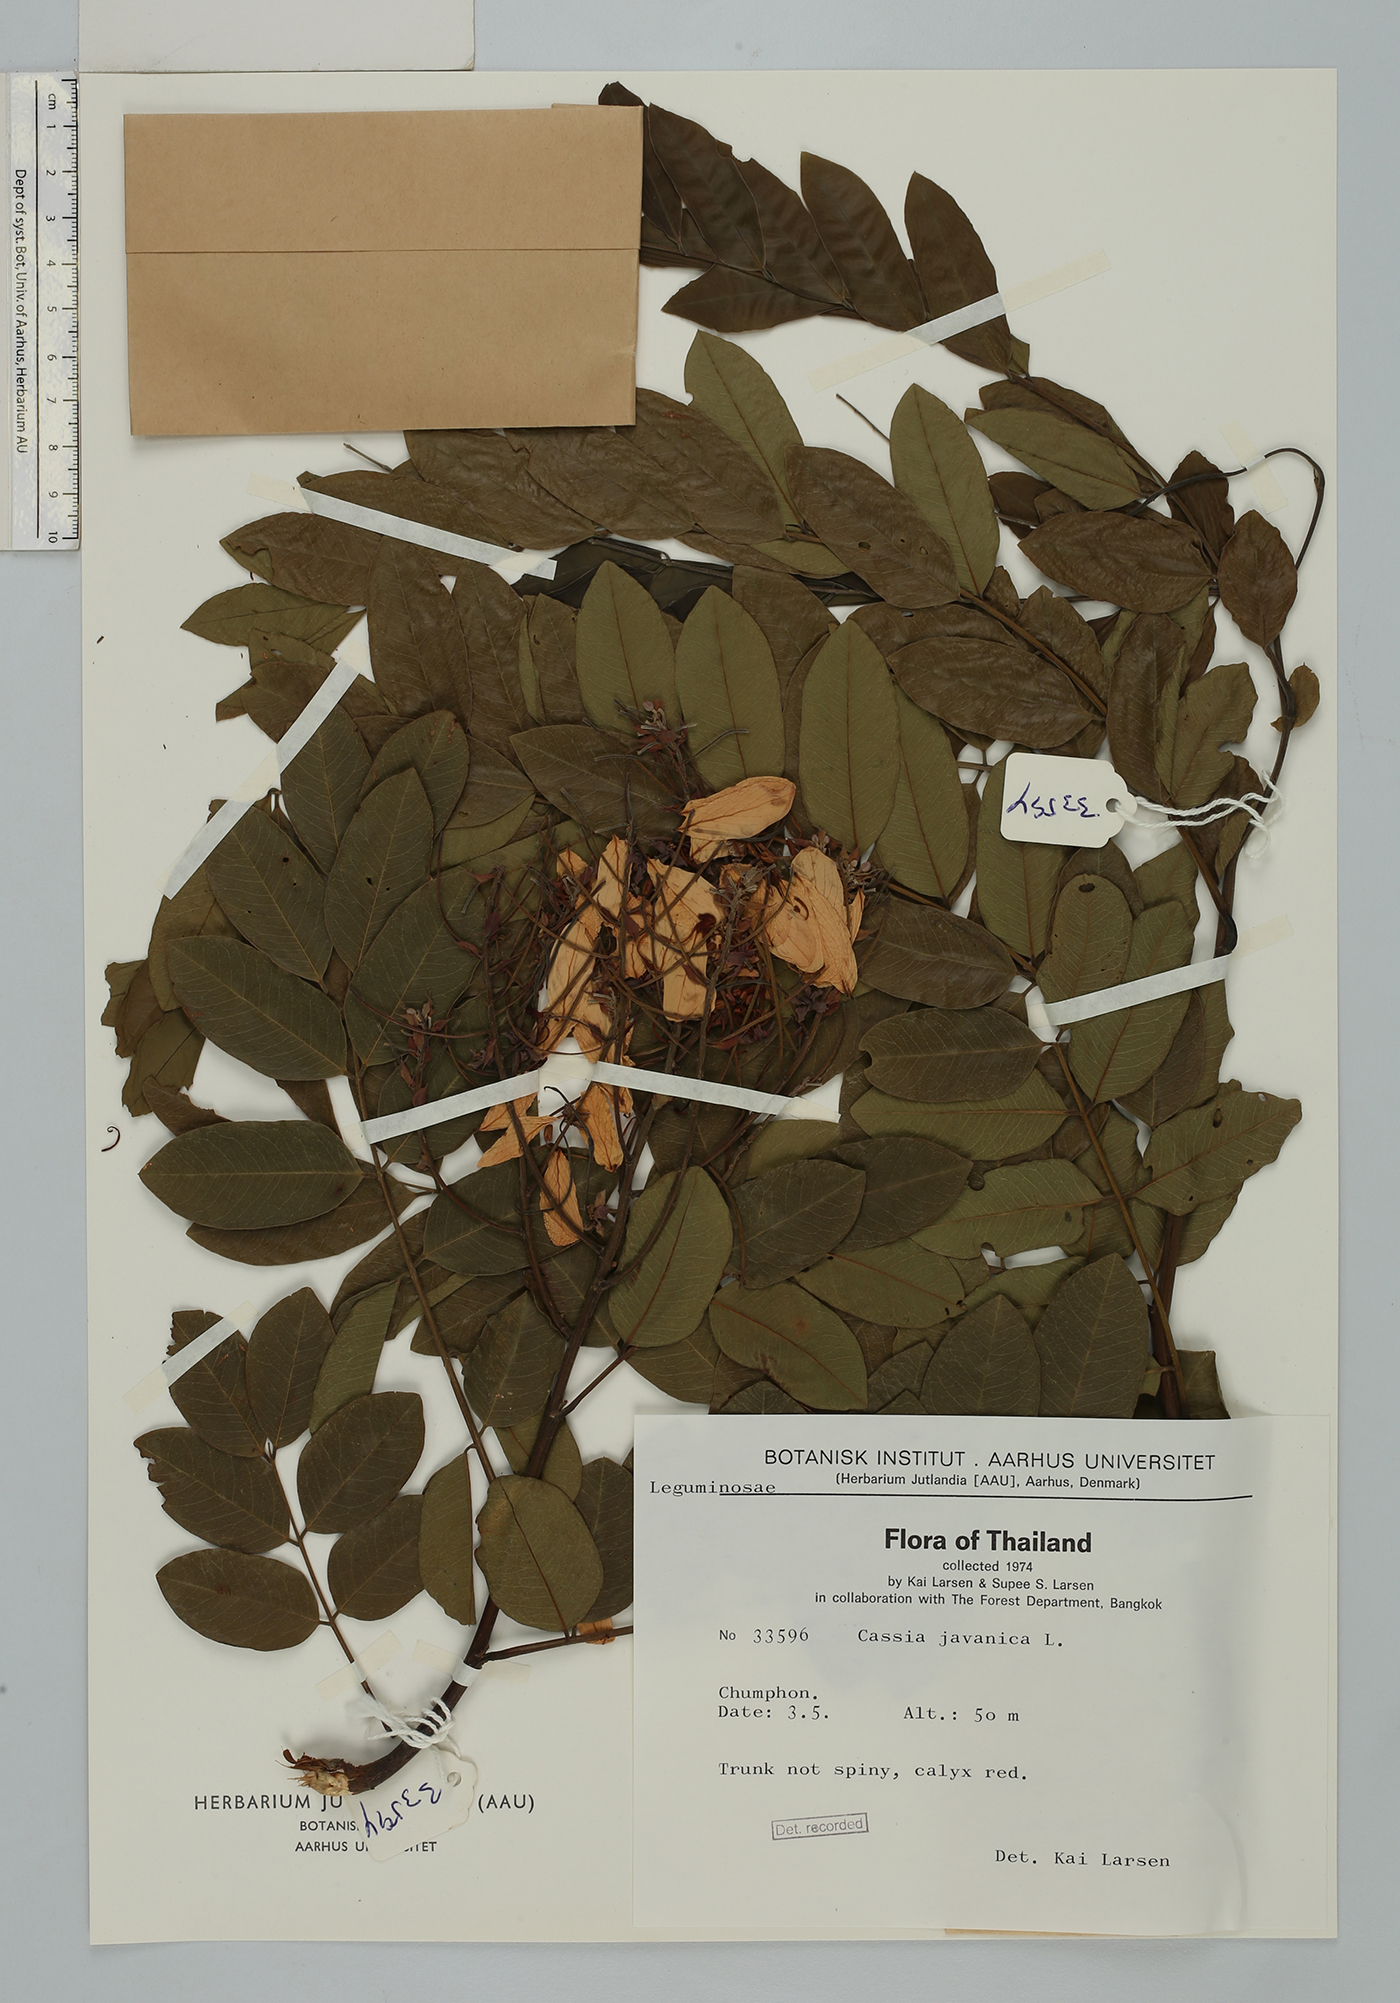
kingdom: Plantae
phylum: Tracheophyta
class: Magnoliopsida
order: Fabales
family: Fabaceae
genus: Cassia
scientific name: Cassia javanica
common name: Apple blossom
